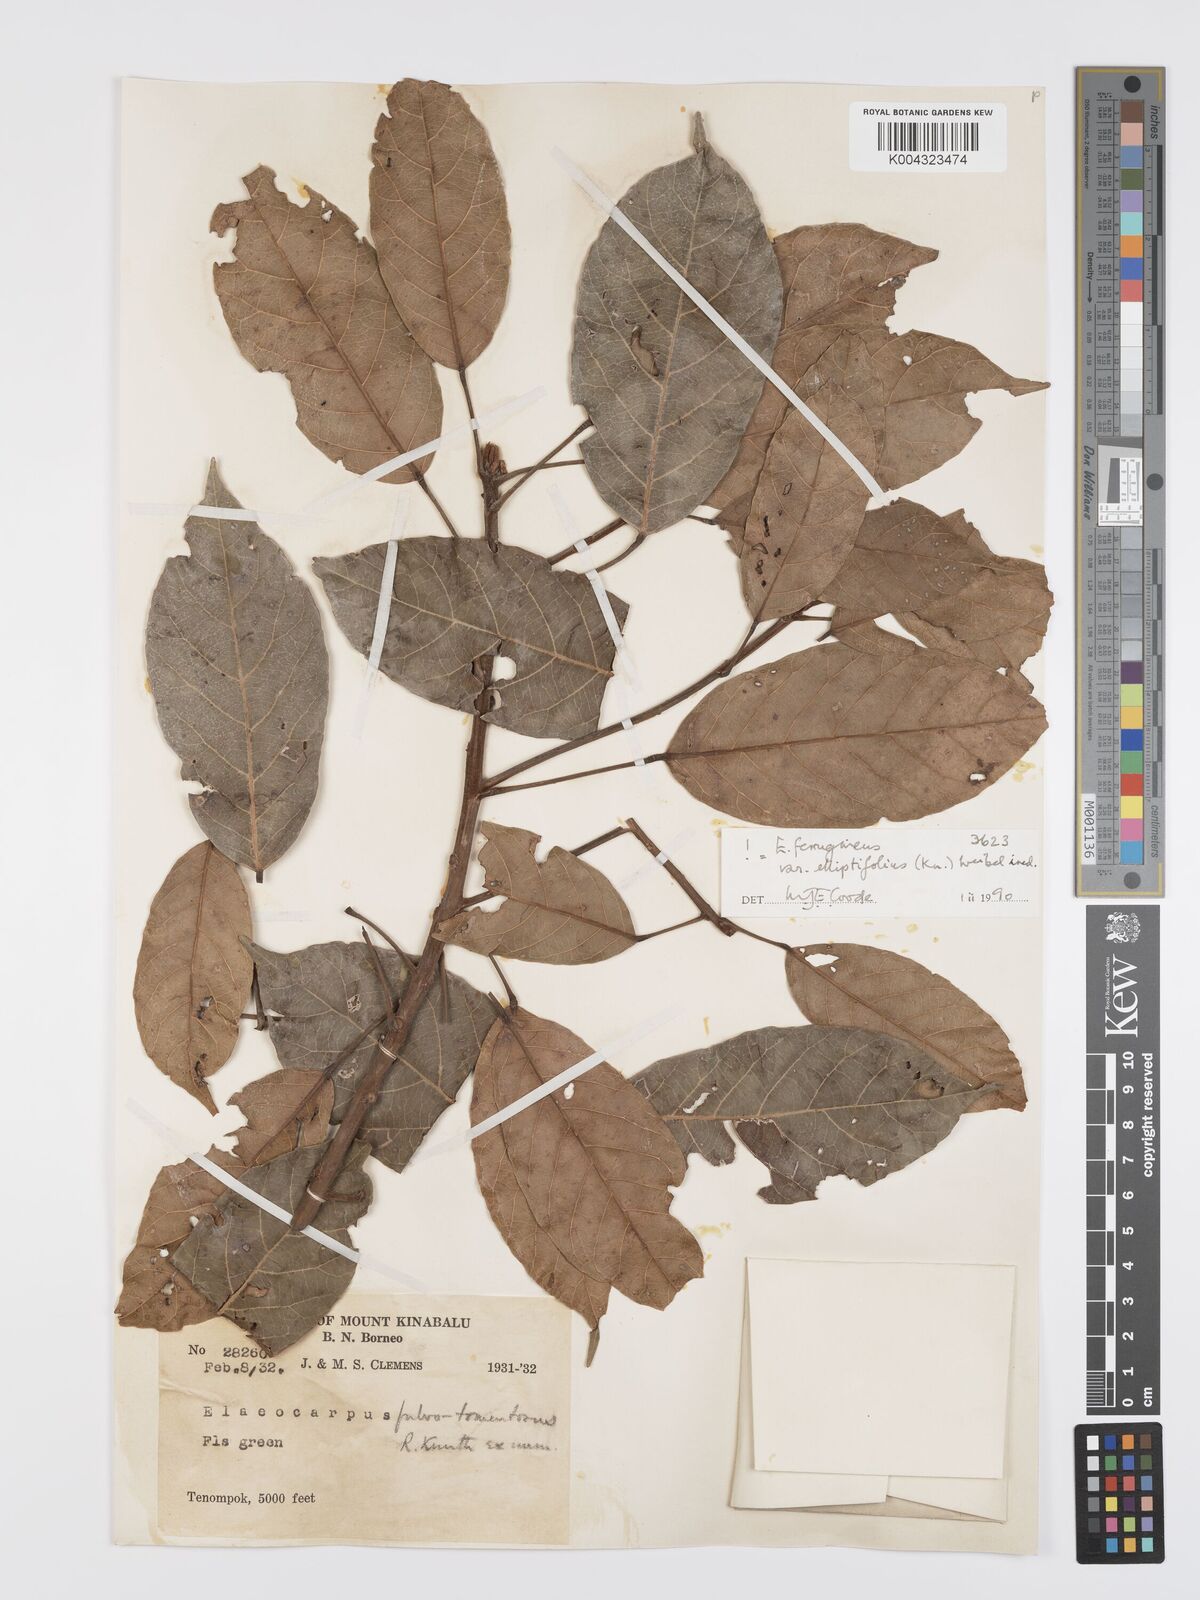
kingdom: Plantae
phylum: Tracheophyta
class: Magnoliopsida
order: Oxalidales
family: Elaeocarpaceae
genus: Elaeocarpus
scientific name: Elaeocarpus ferrugineus
